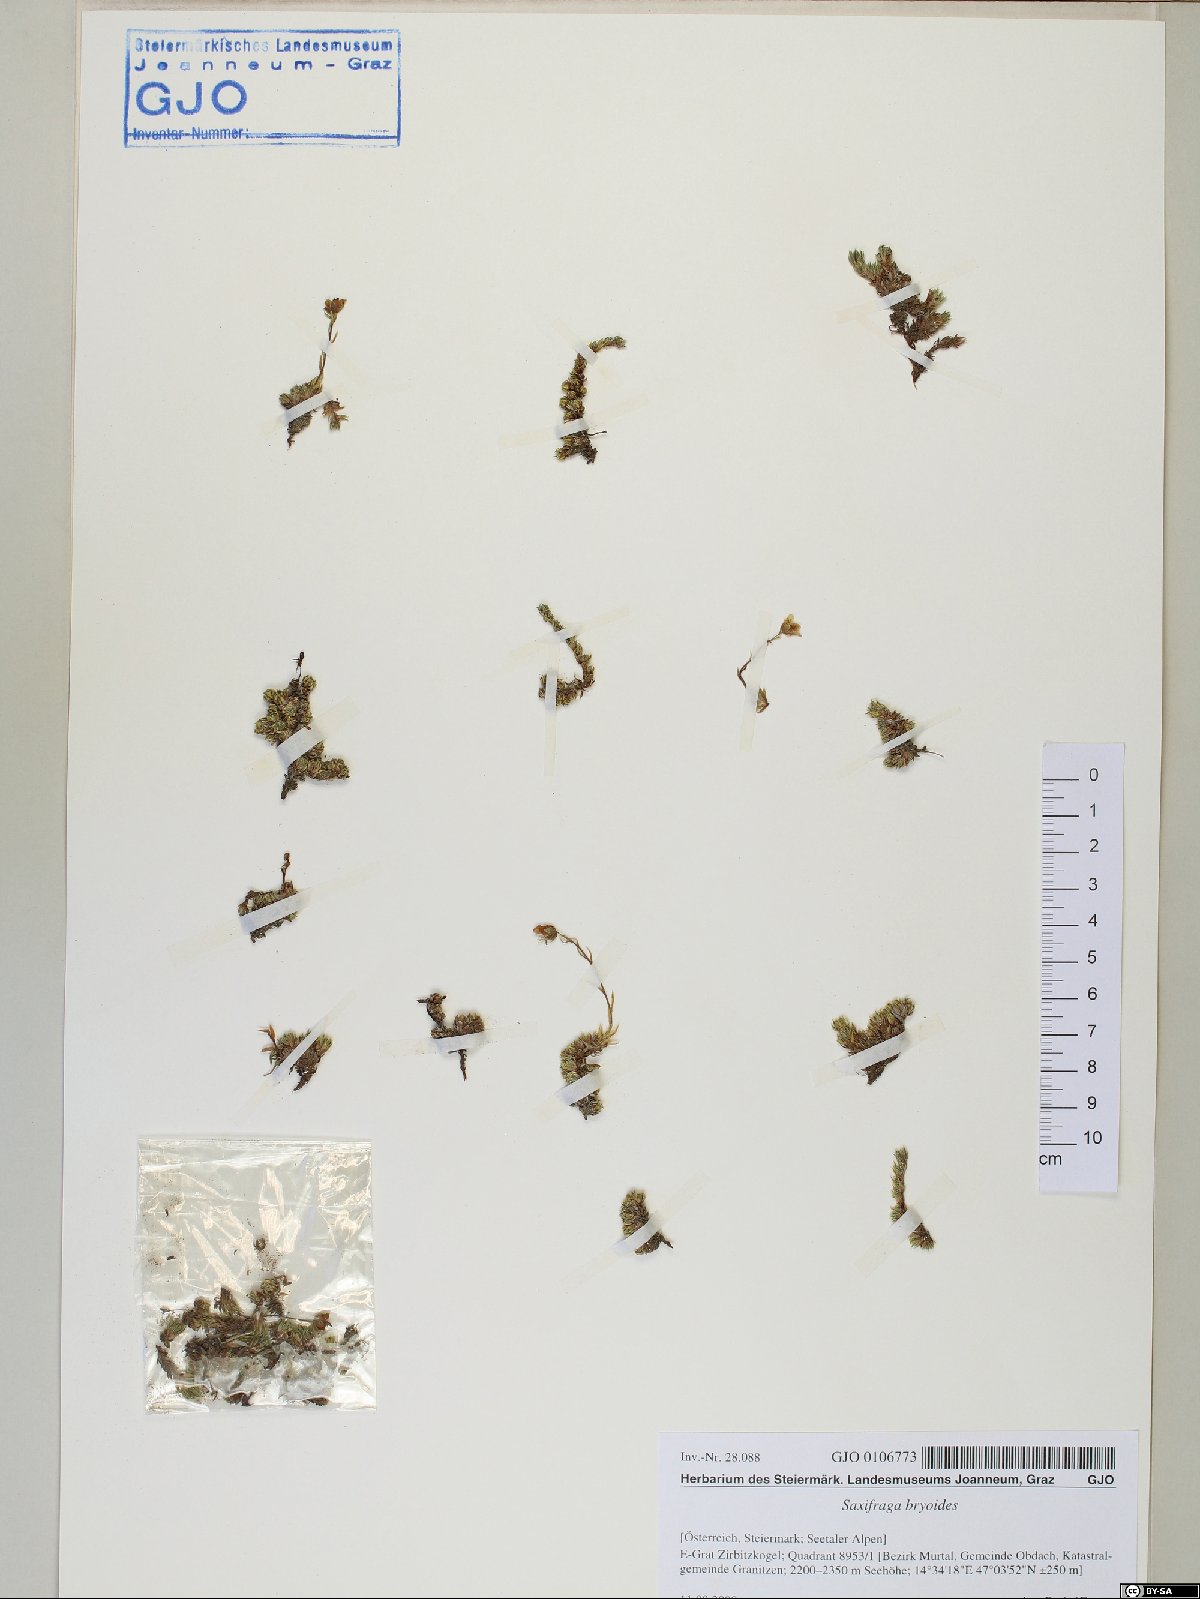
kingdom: Plantae
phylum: Tracheophyta
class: Magnoliopsida
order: Saxifragales
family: Saxifragaceae
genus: Saxifraga
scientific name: Saxifraga bryoides
